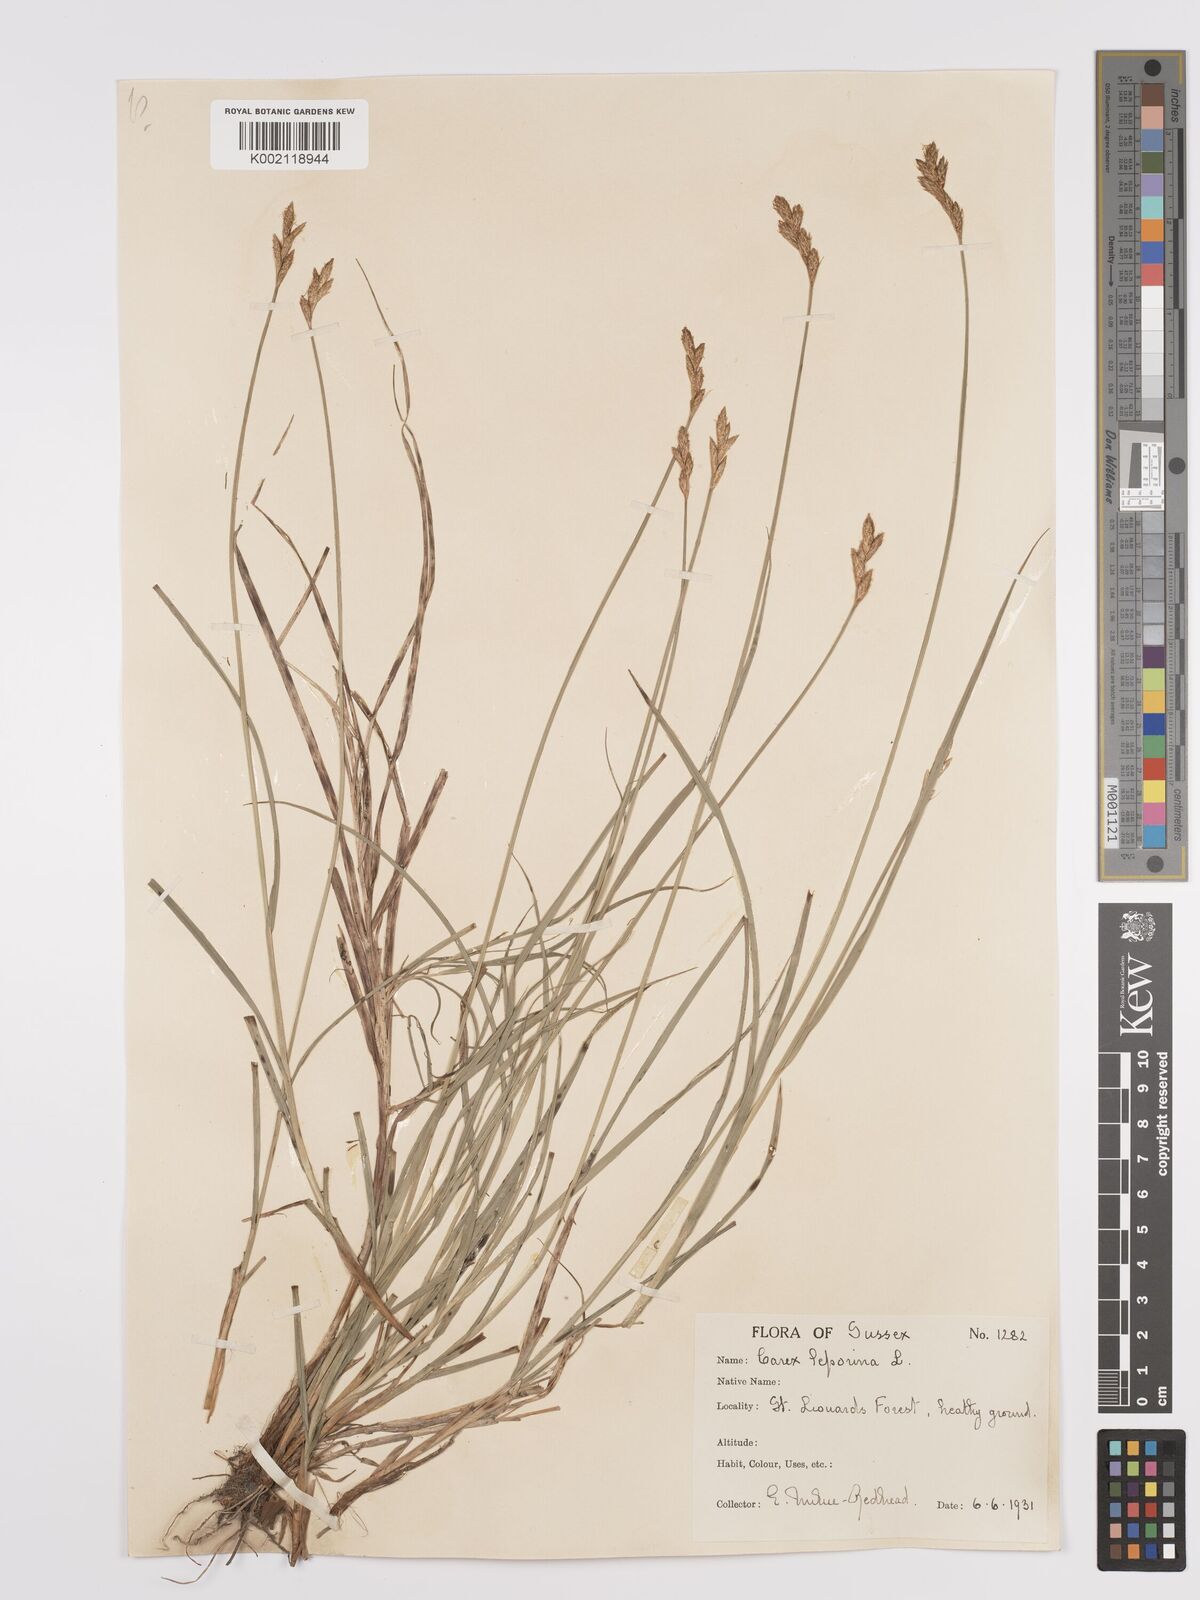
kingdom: Plantae
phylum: Tracheophyta
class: Liliopsida
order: Poales
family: Cyperaceae
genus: Carex
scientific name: Carex leporina
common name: Oval sedge
